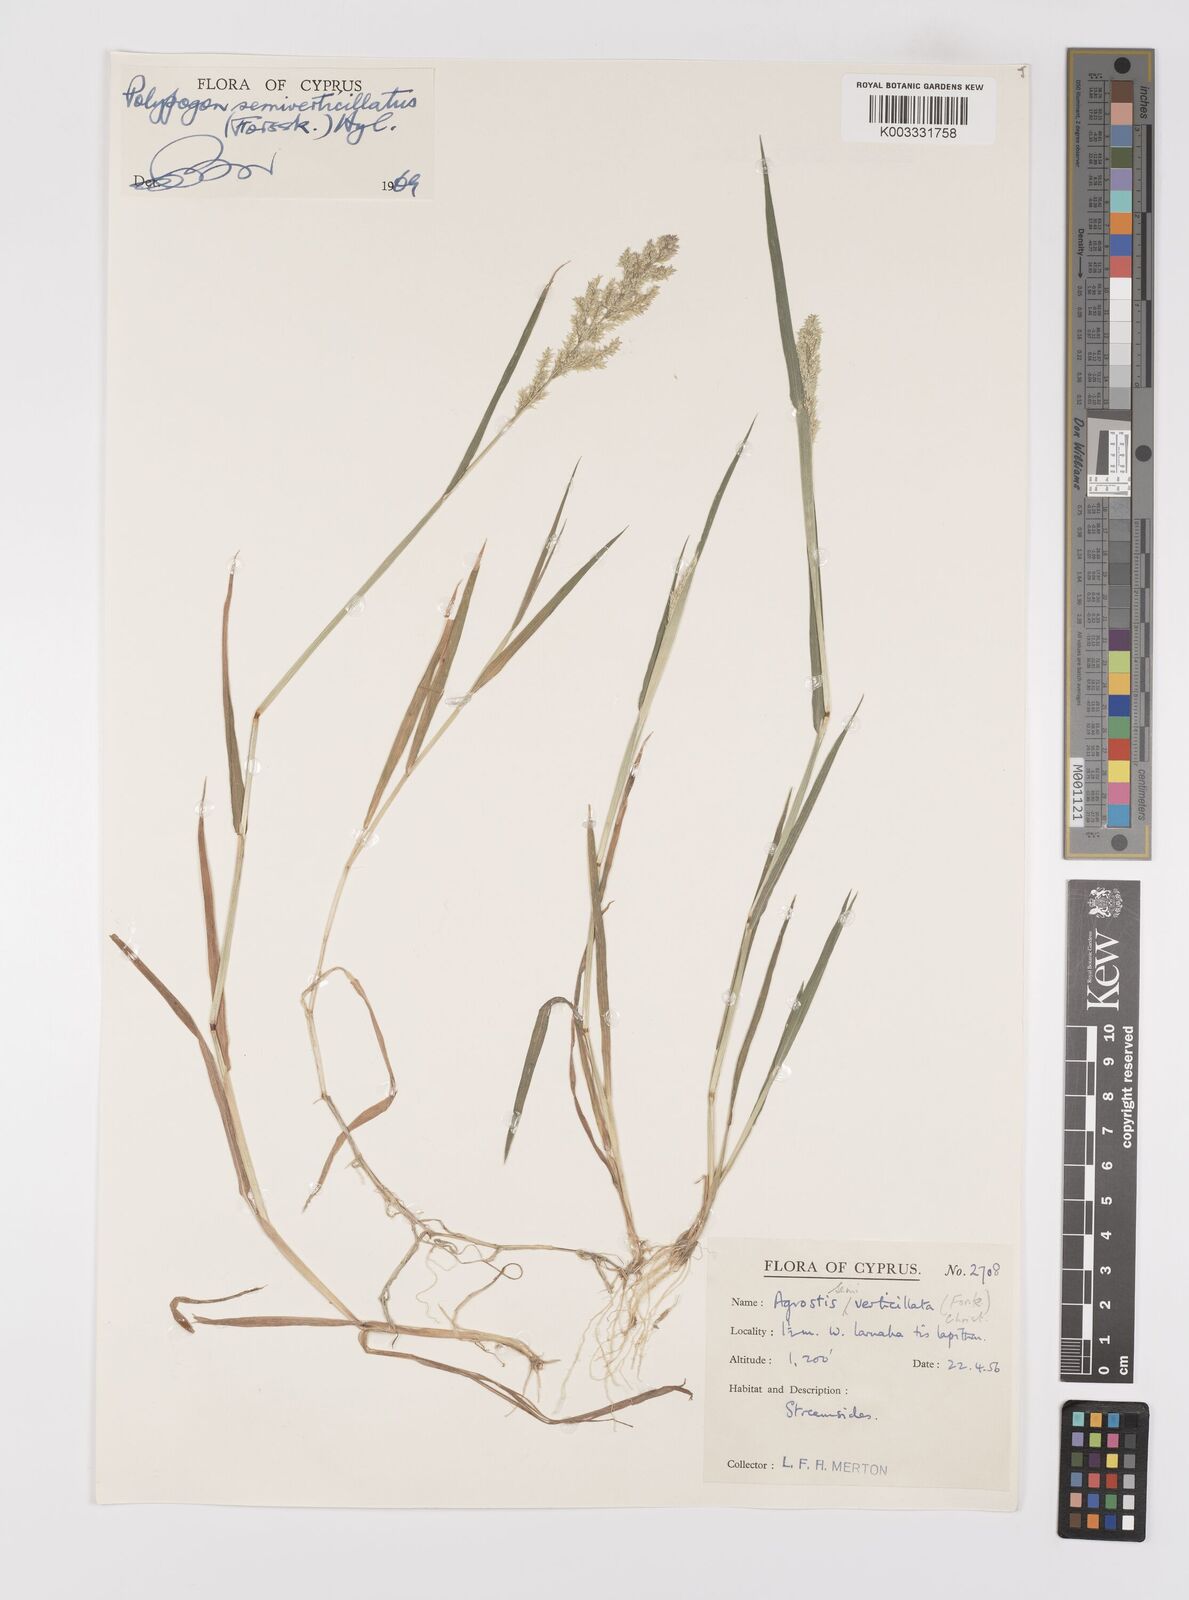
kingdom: Plantae
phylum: Tracheophyta
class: Liliopsida
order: Poales
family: Poaceae
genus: Polypogon
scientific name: Polypogon viridis
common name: Water bent
